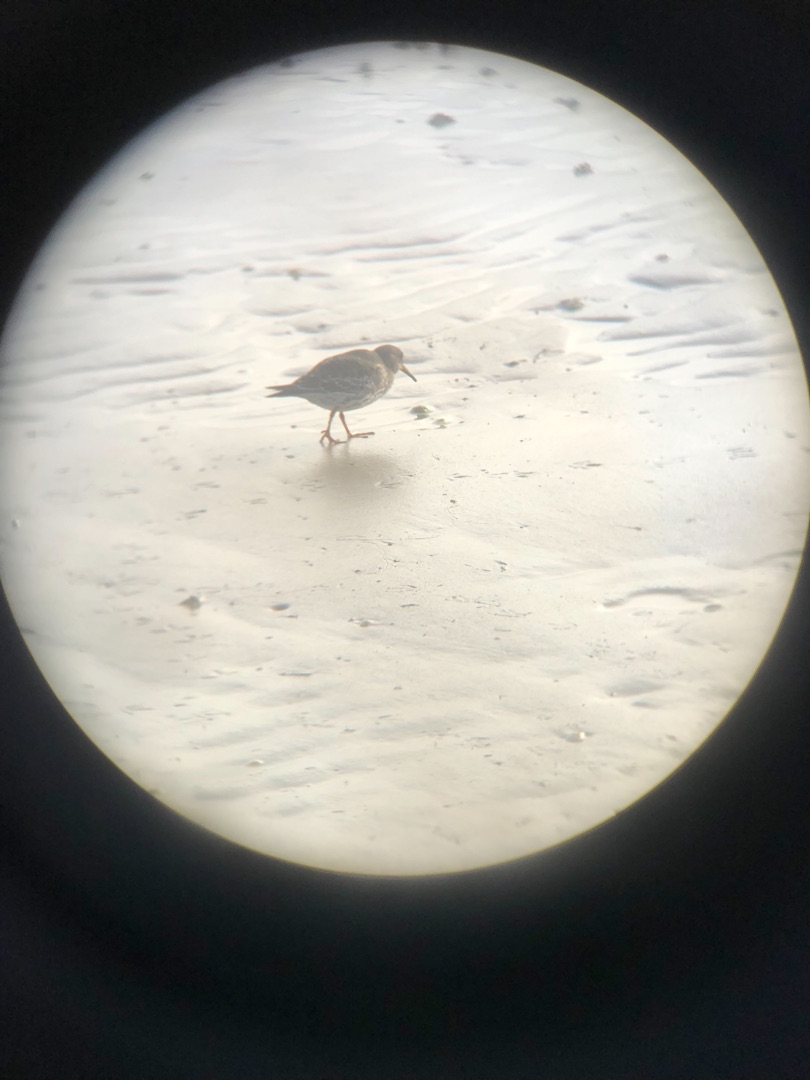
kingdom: Animalia
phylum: Chordata
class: Aves
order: Charadriiformes
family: Scolopacidae
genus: Calidris
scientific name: Calidris maritima
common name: Sortgrå ryle
